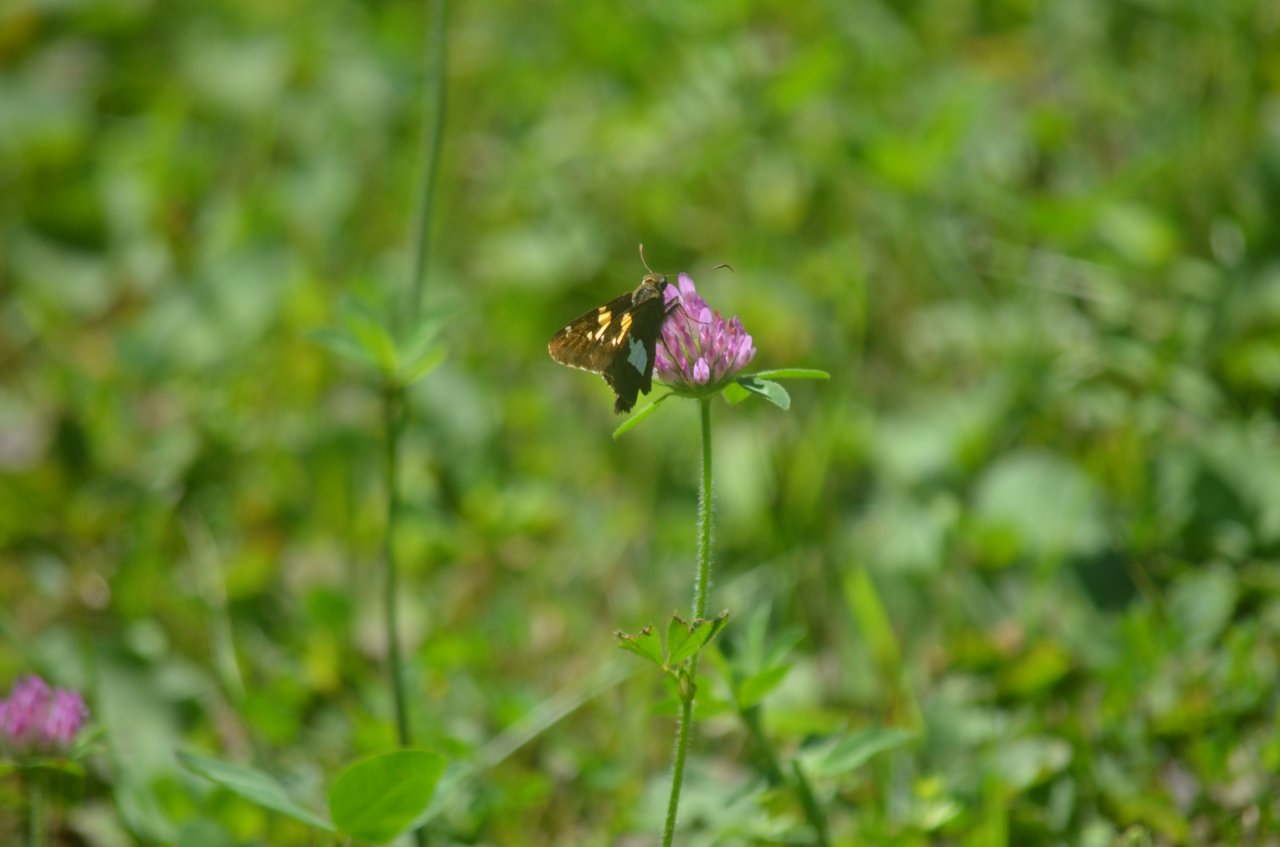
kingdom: Animalia
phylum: Arthropoda
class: Insecta
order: Lepidoptera
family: Hesperiidae
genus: Epargyreus
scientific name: Epargyreus clarus
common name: Silver-spotted Skipper
